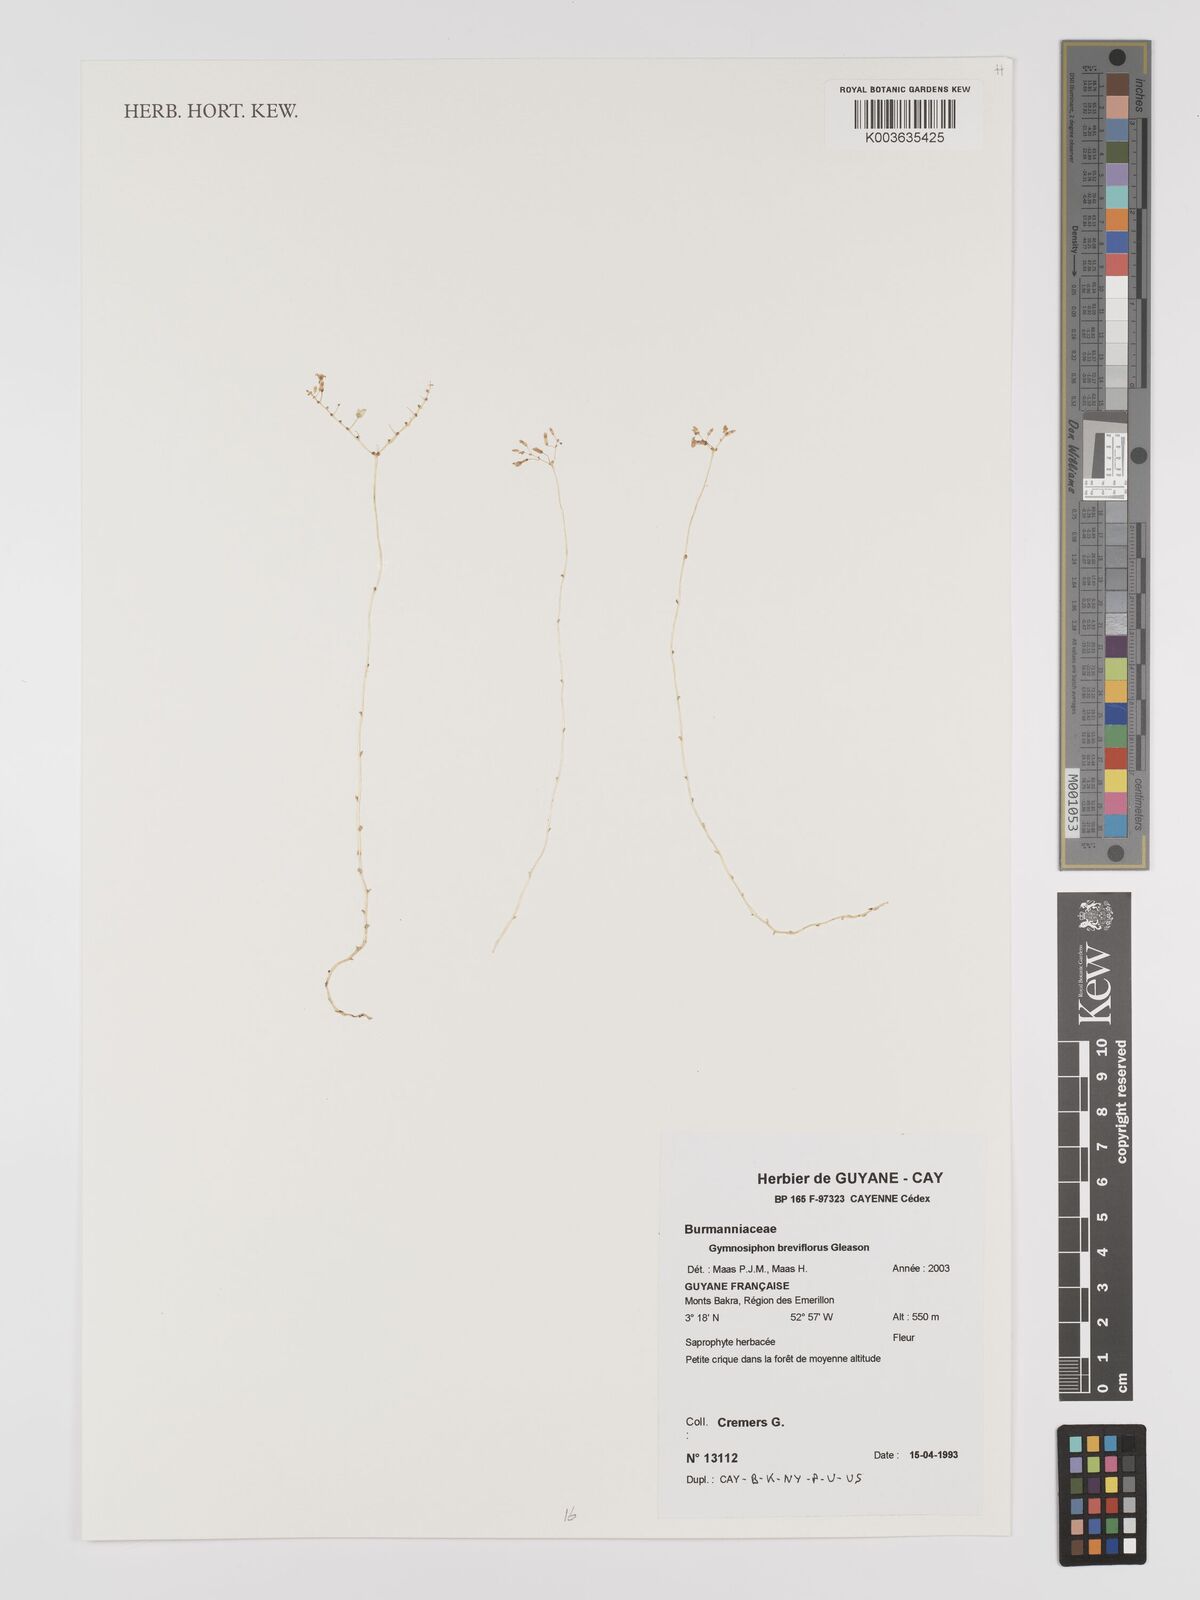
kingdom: Plantae
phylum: Tracheophyta
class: Liliopsida
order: Dioscoreales
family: Burmanniaceae
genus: Gymnosiphon
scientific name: Gymnosiphon breviflorus
